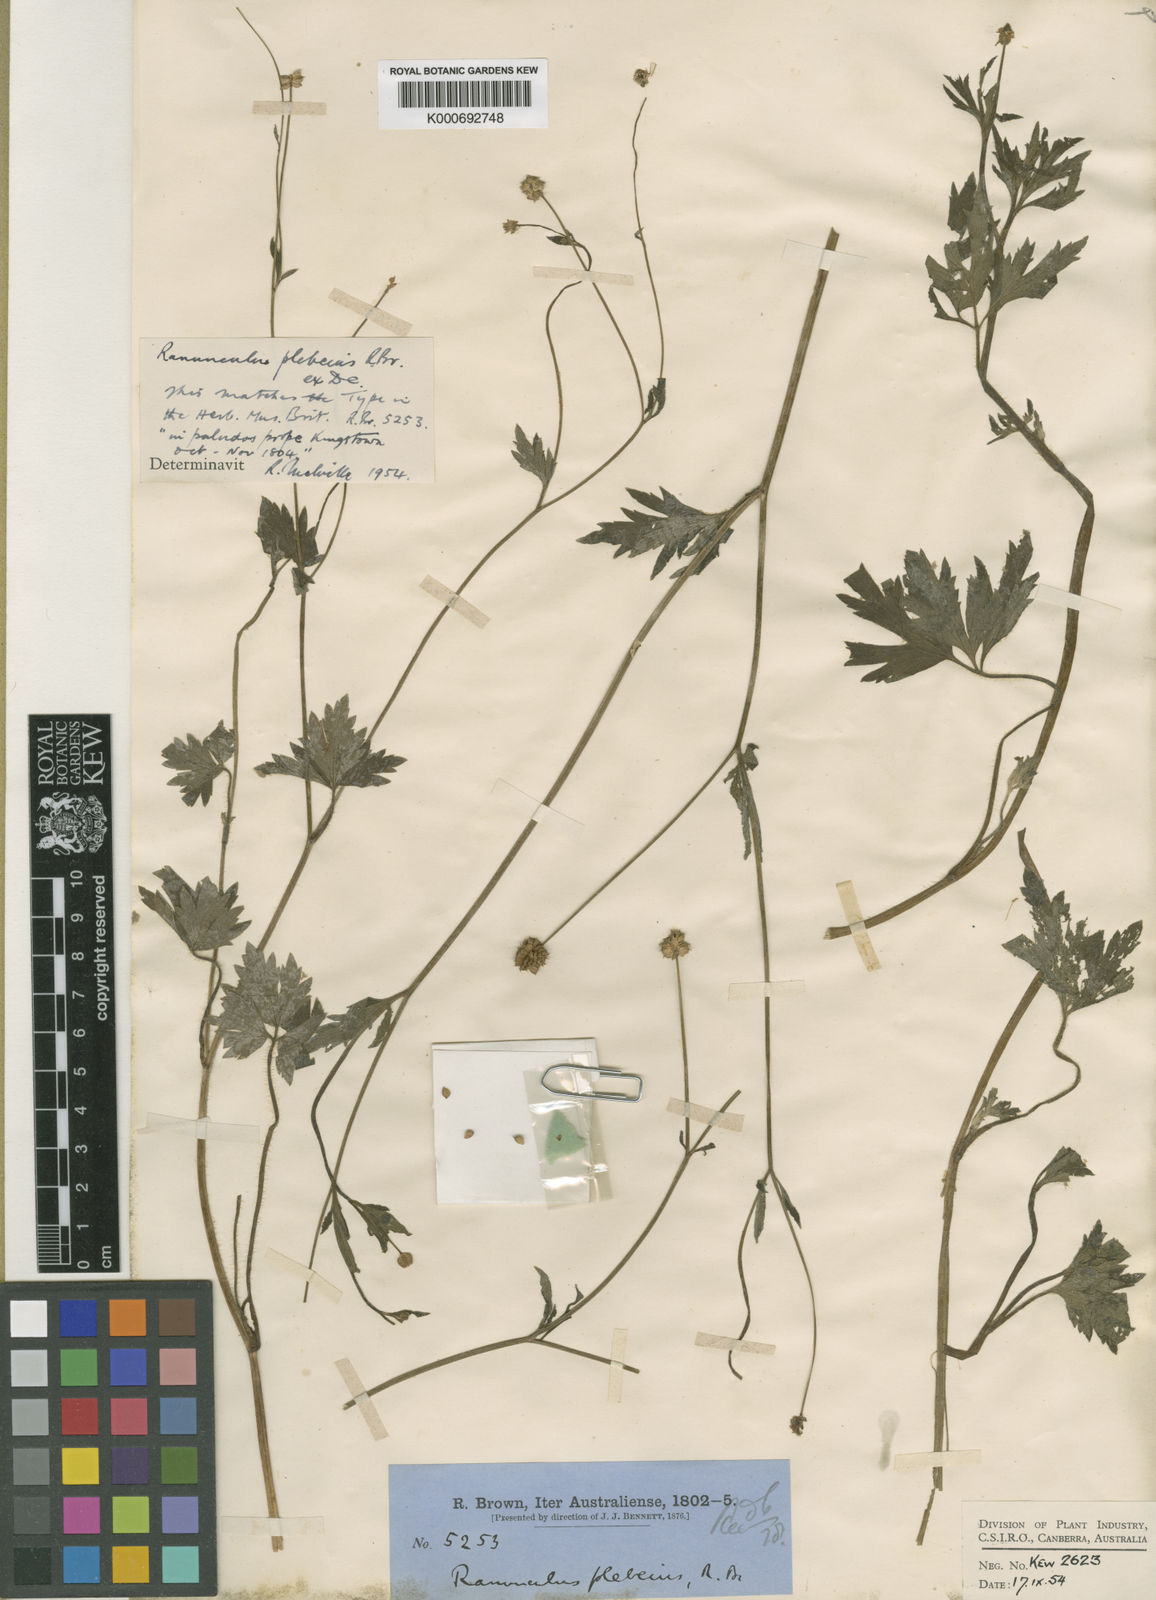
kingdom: Plantae
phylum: Tracheophyta
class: Magnoliopsida
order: Ranunculales
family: Ranunculaceae
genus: Ranunculus
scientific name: Ranunculus
